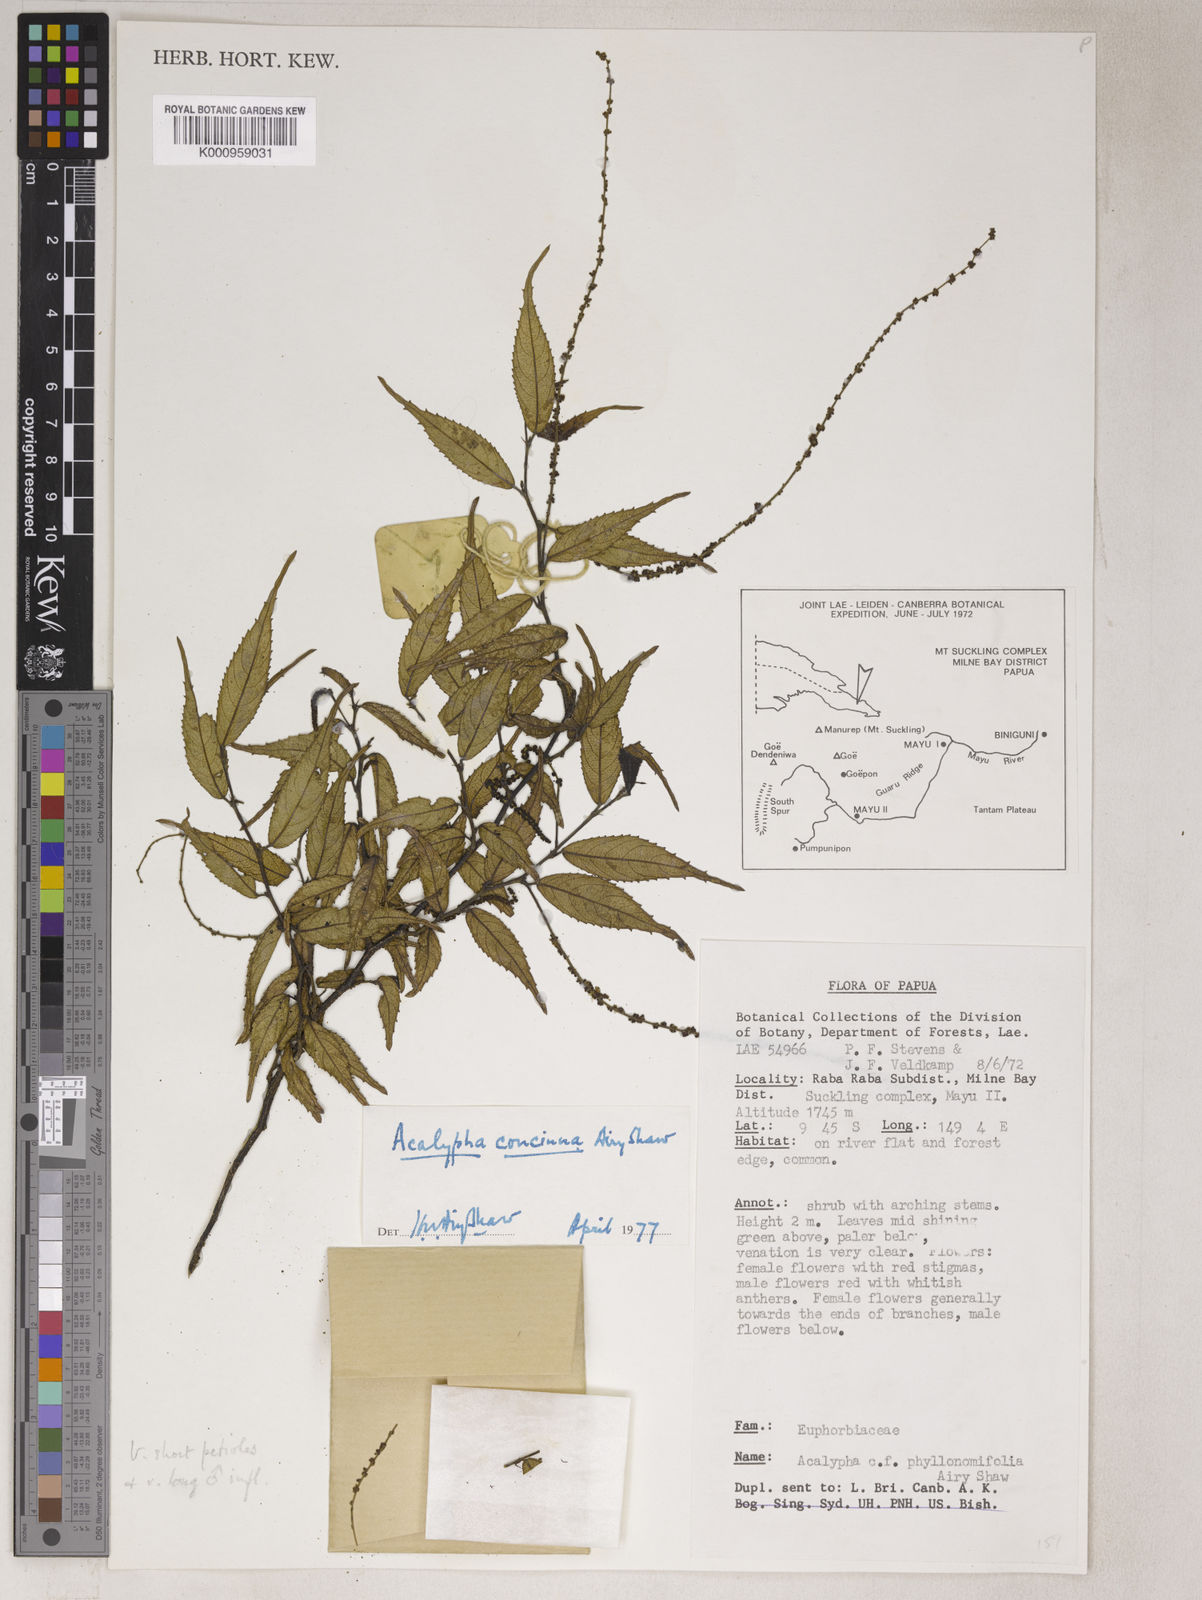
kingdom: Plantae
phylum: Tracheophyta
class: Magnoliopsida
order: Malpighiales
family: Euphorbiaceae
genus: Acalypha
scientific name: Acalypha phyllonomifolia
